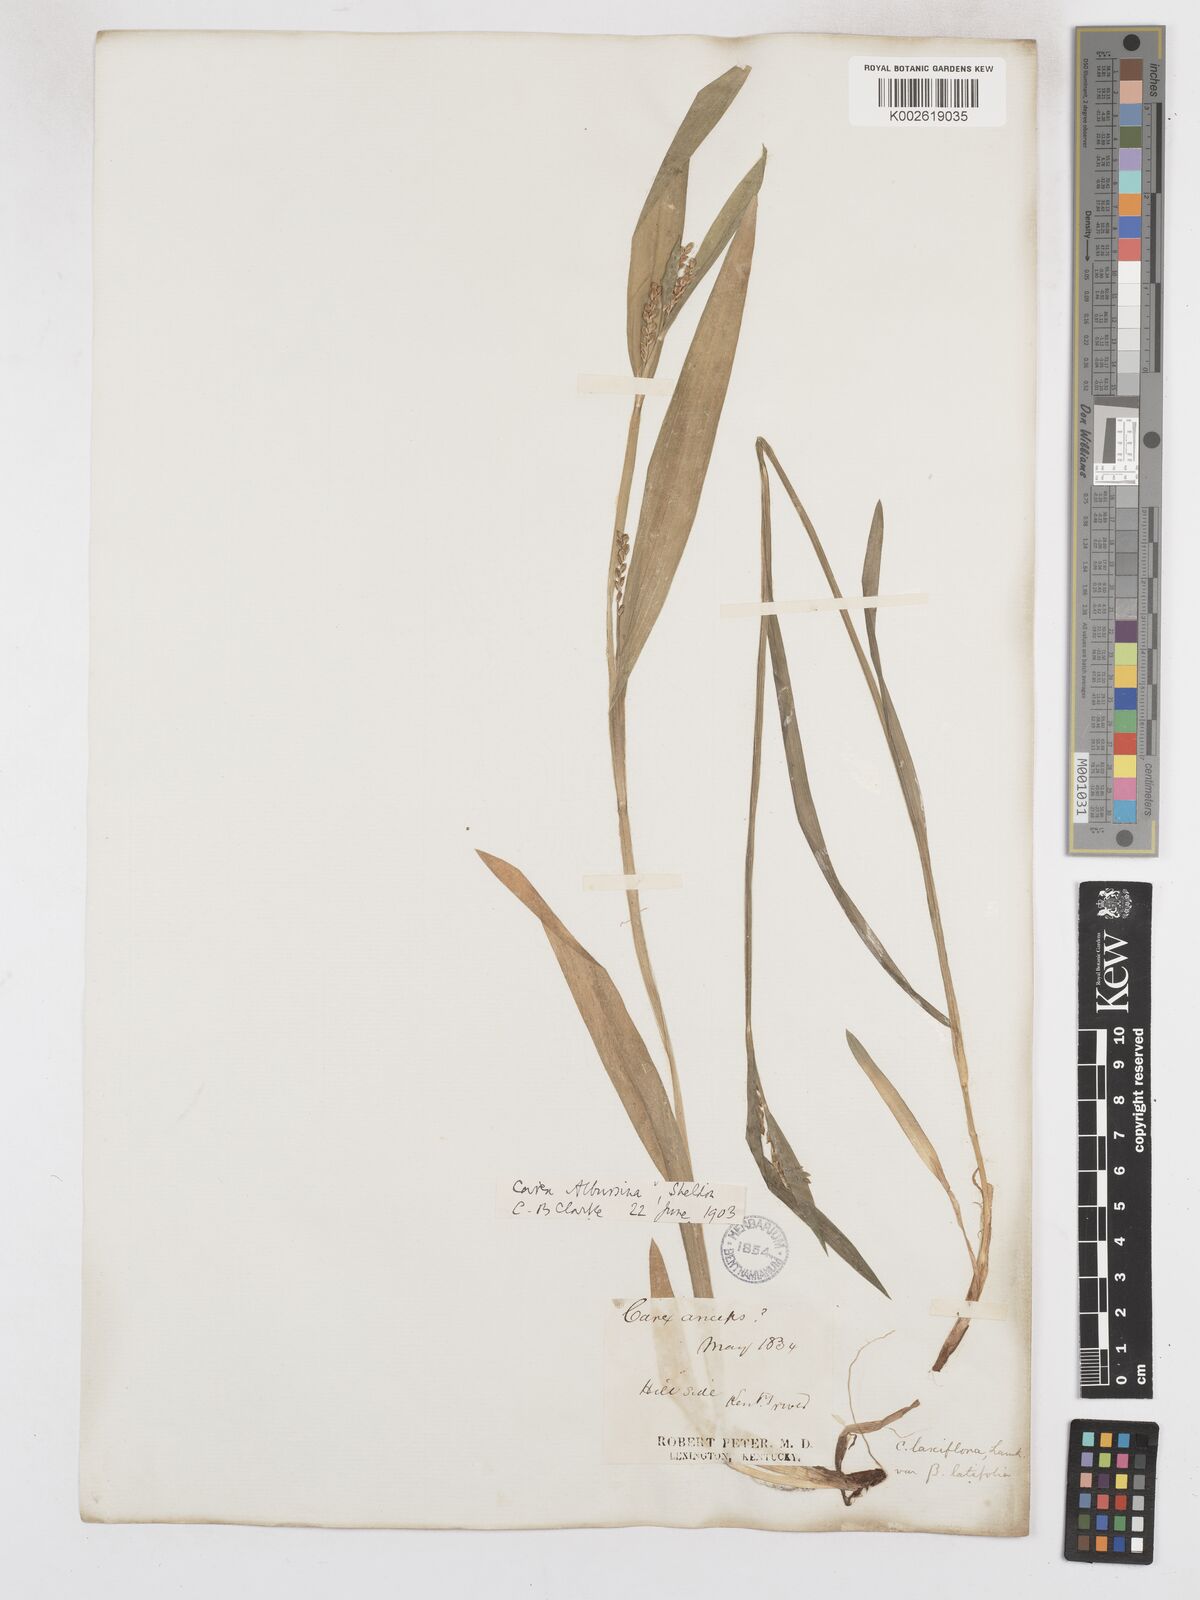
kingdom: Plantae
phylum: Tracheophyta
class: Liliopsida
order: Poales
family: Cyperaceae
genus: Carex
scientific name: Carex albursina
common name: Blunt-scale wood sedge
